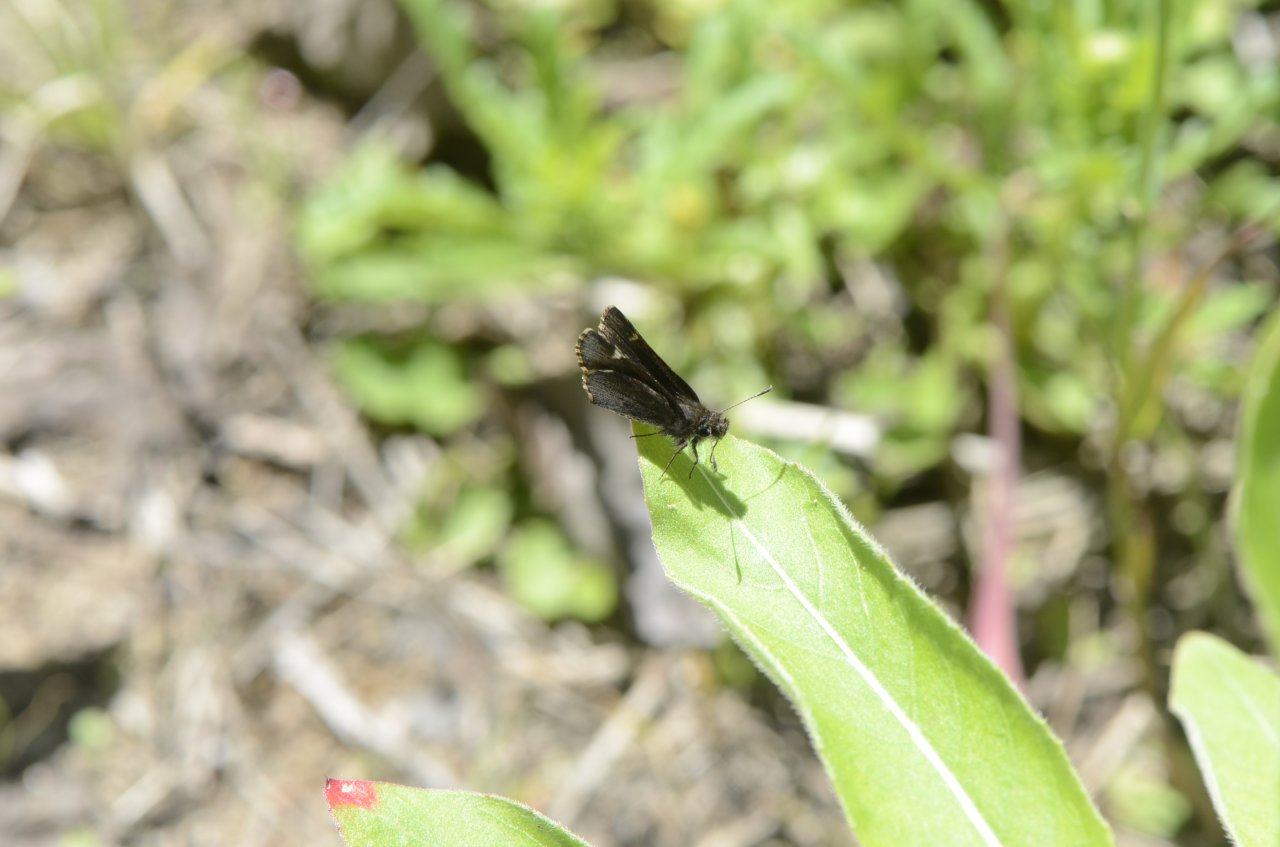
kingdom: Animalia
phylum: Arthropoda
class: Insecta
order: Lepidoptera
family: Hesperiidae
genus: Mastor
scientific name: Mastor vialis
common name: Common Roadside-Skipper
